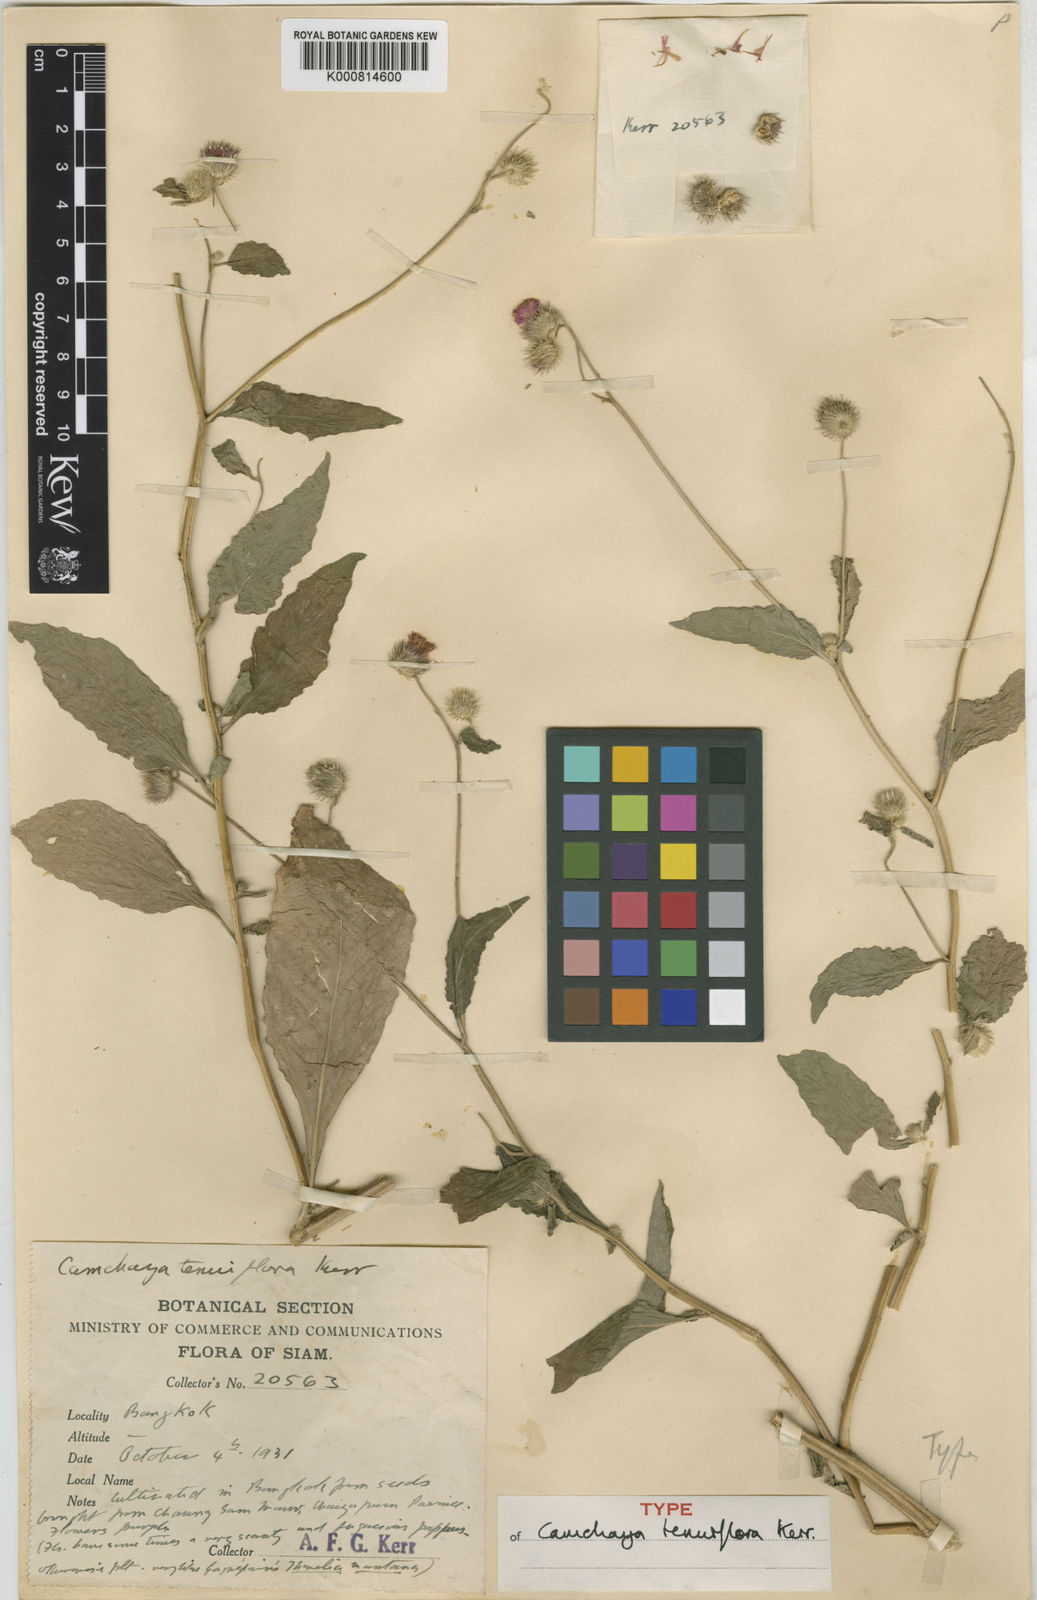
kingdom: Plantae
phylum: Tracheophyta
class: Magnoliopsida
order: Asterales
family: Asteraceae
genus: Camchaya
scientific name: Camchaya
